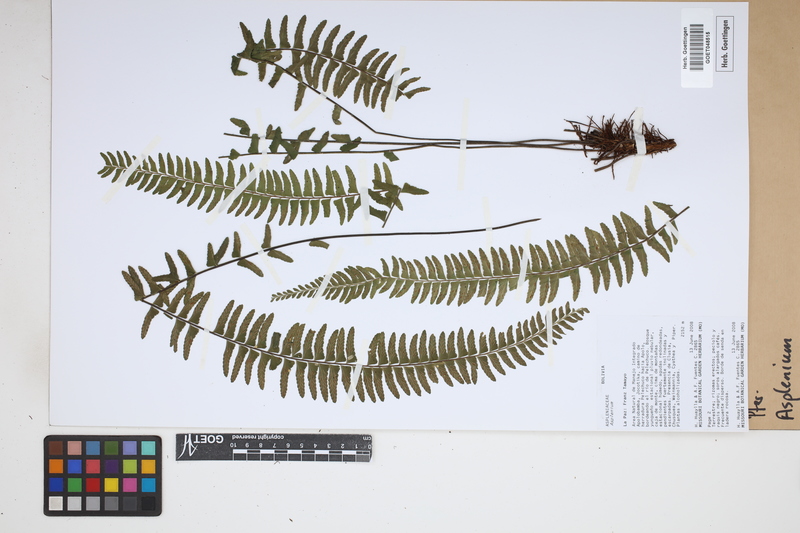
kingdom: Plantae
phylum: Tracheophyta
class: Polypodiopsida
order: Polypodiales
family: Aspleniaceae
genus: Asplenium
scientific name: Asplenium
